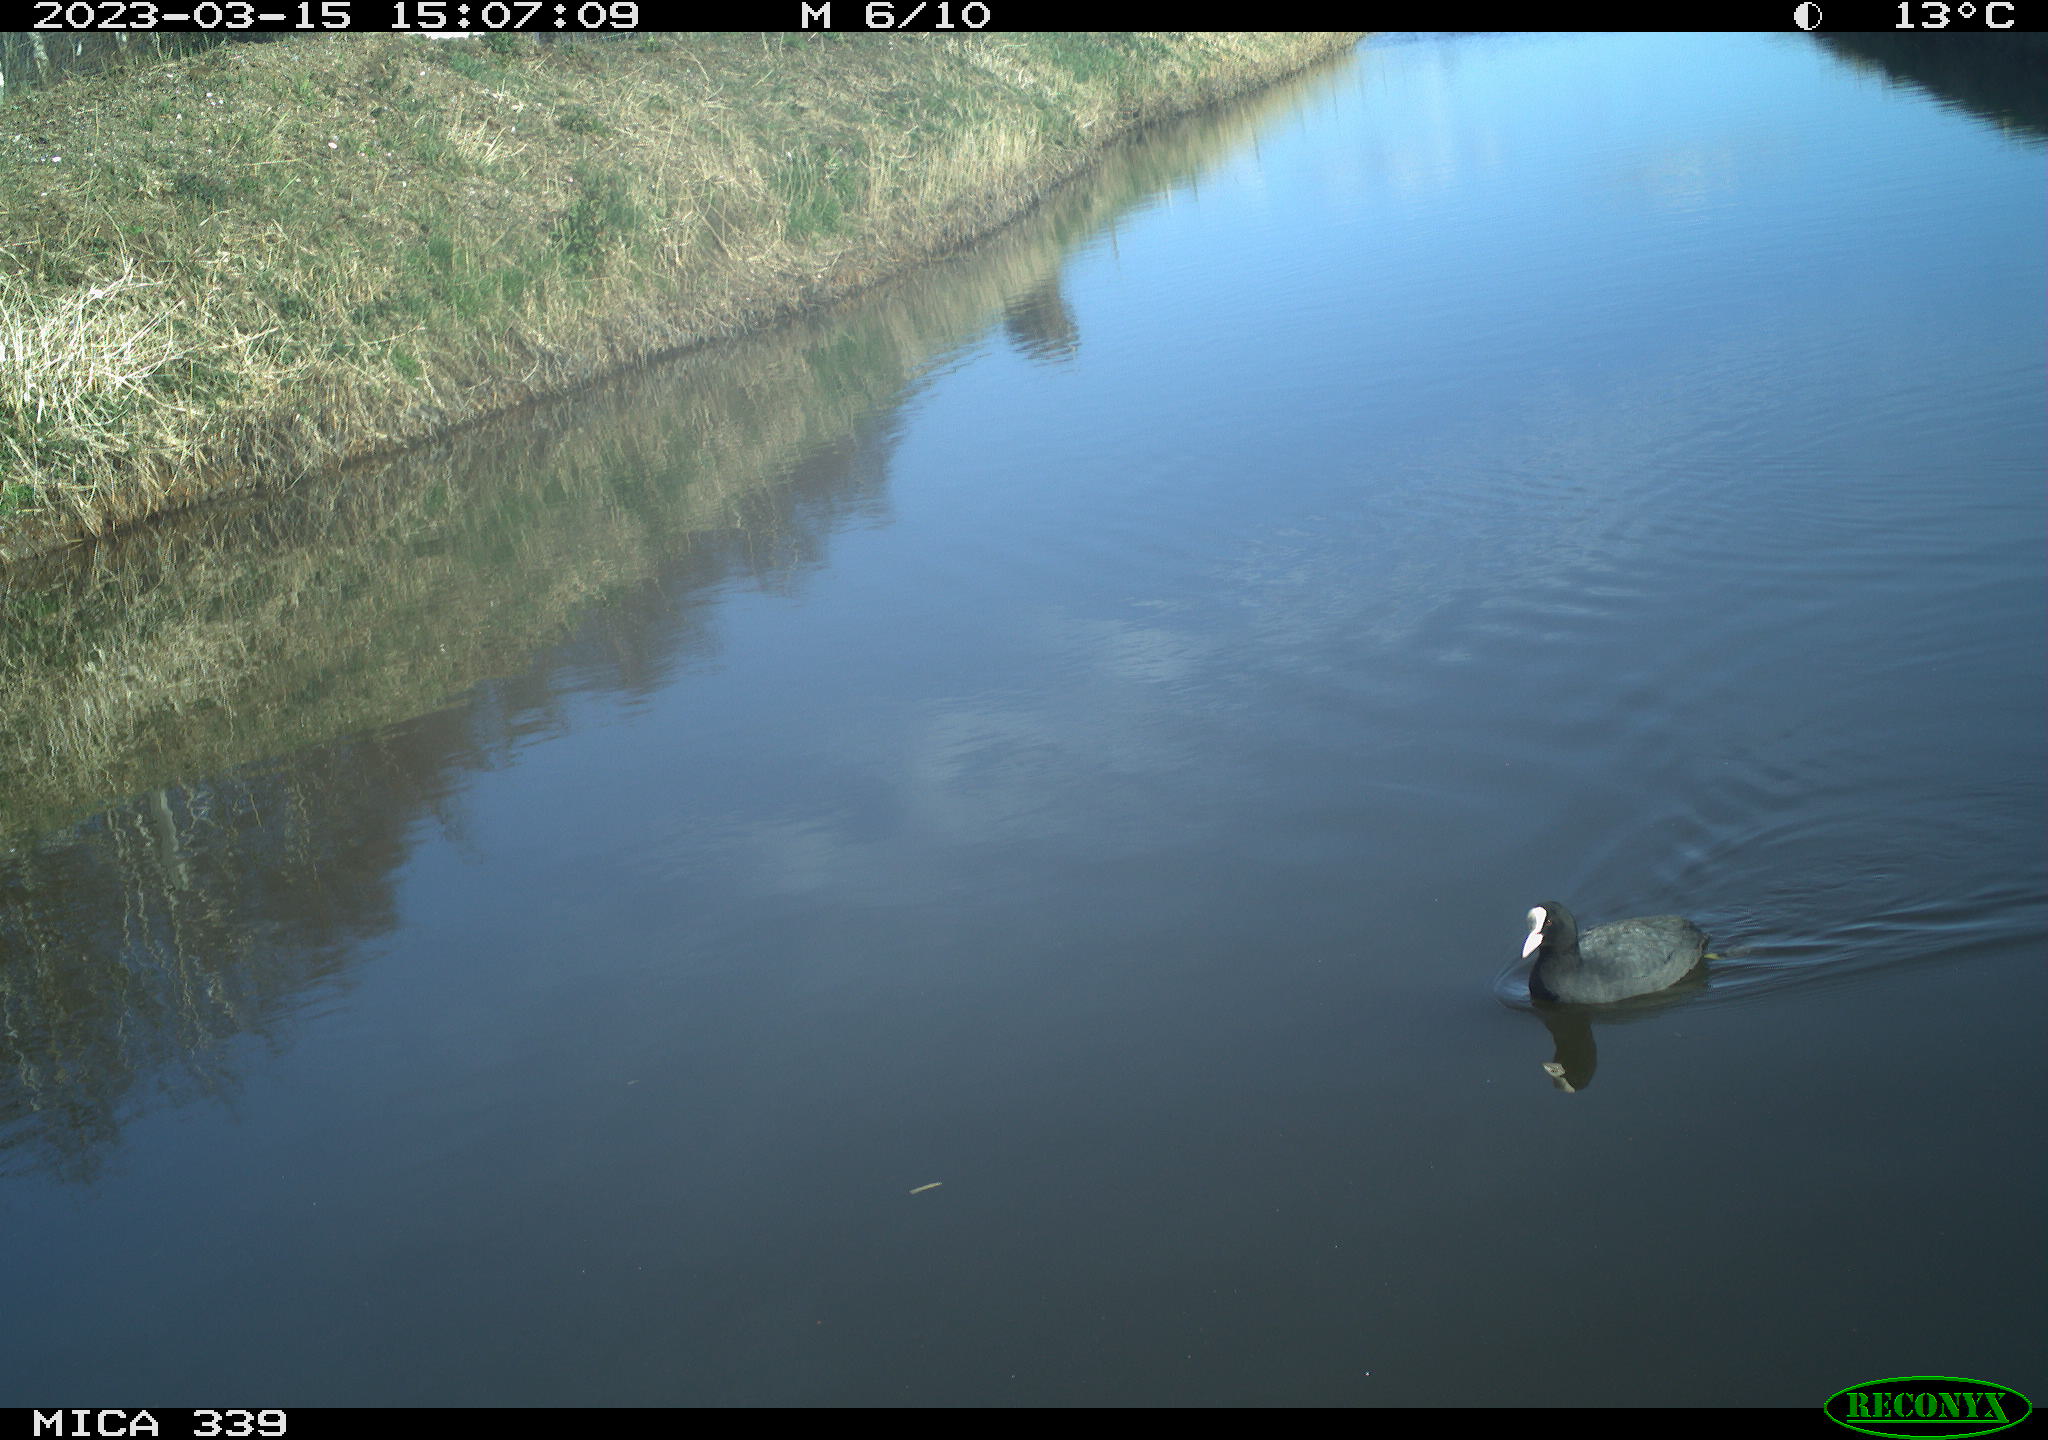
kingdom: Animalia
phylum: Chordata
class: Aves
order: Gruiformes
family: Rallidae
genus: Fulica
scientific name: Fulica atra
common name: Eurasian coot
